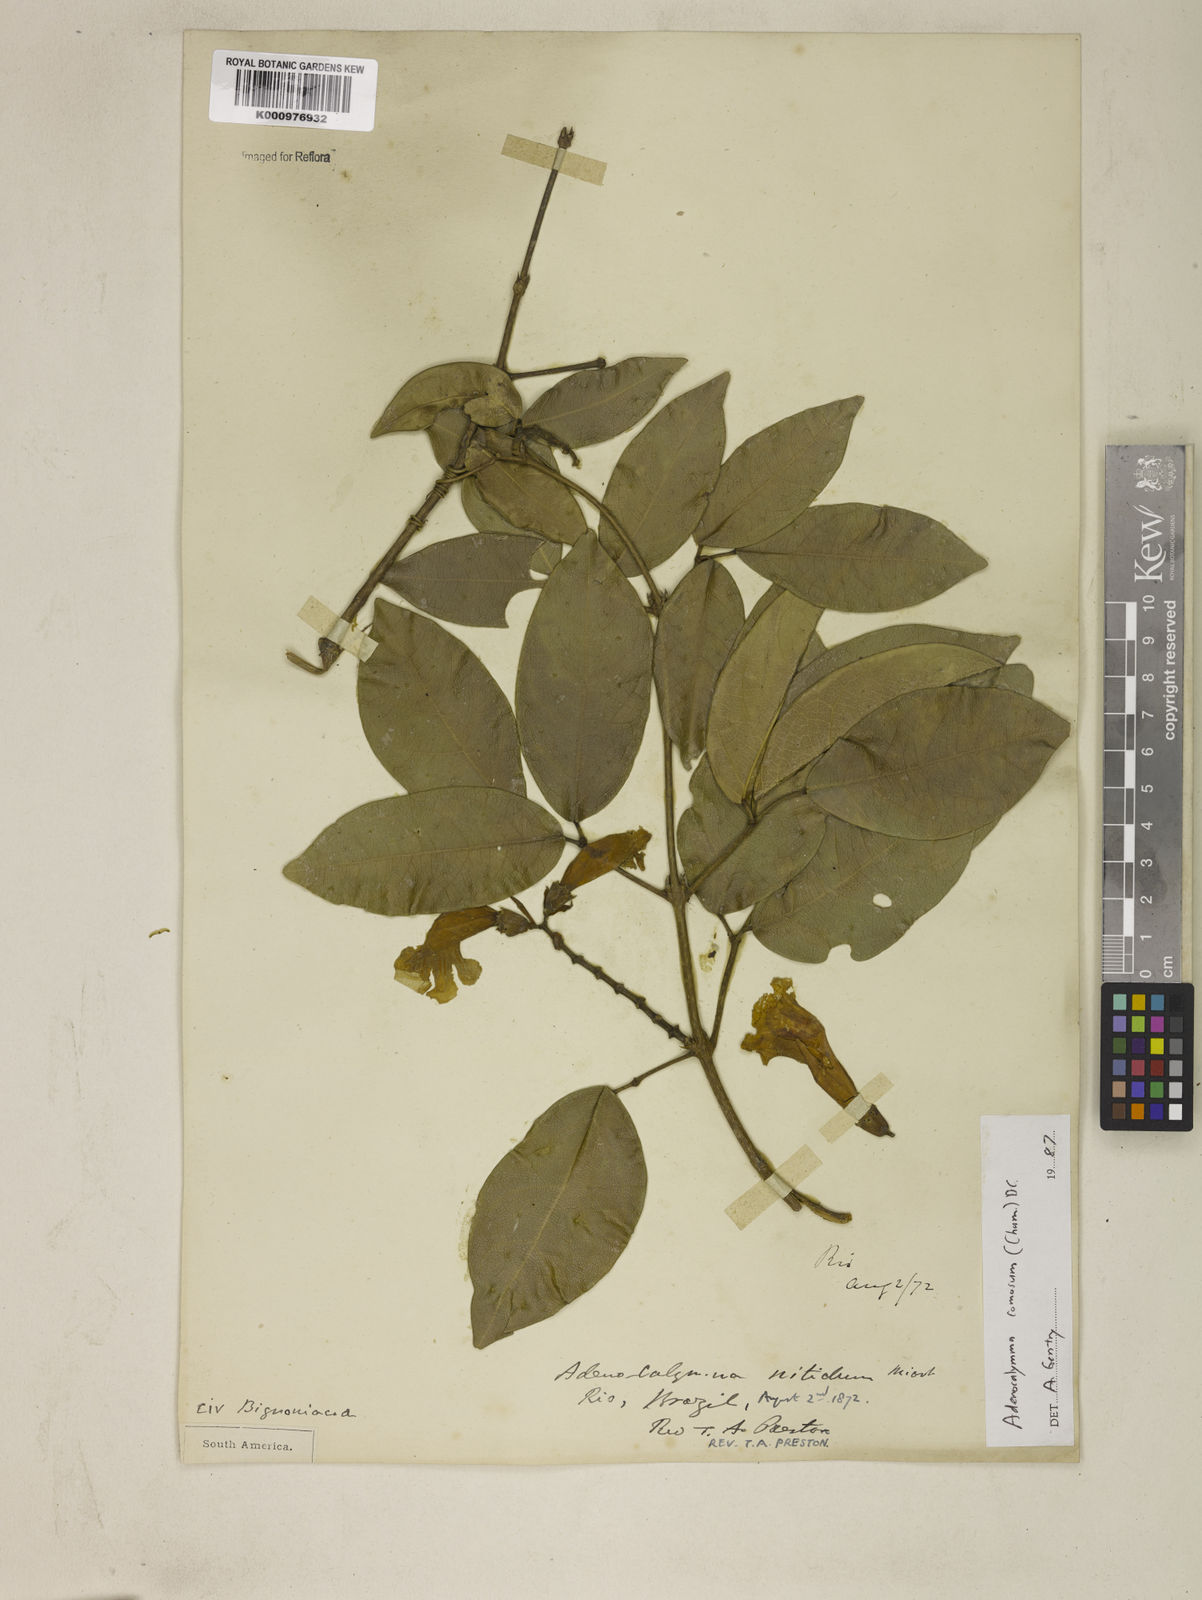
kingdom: Plantae
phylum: Tracheophyta
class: Magnoliopsida
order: Lamiales
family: Bignoniaceae
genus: Adenocalymma
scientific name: Adenocalymma acutissimum
